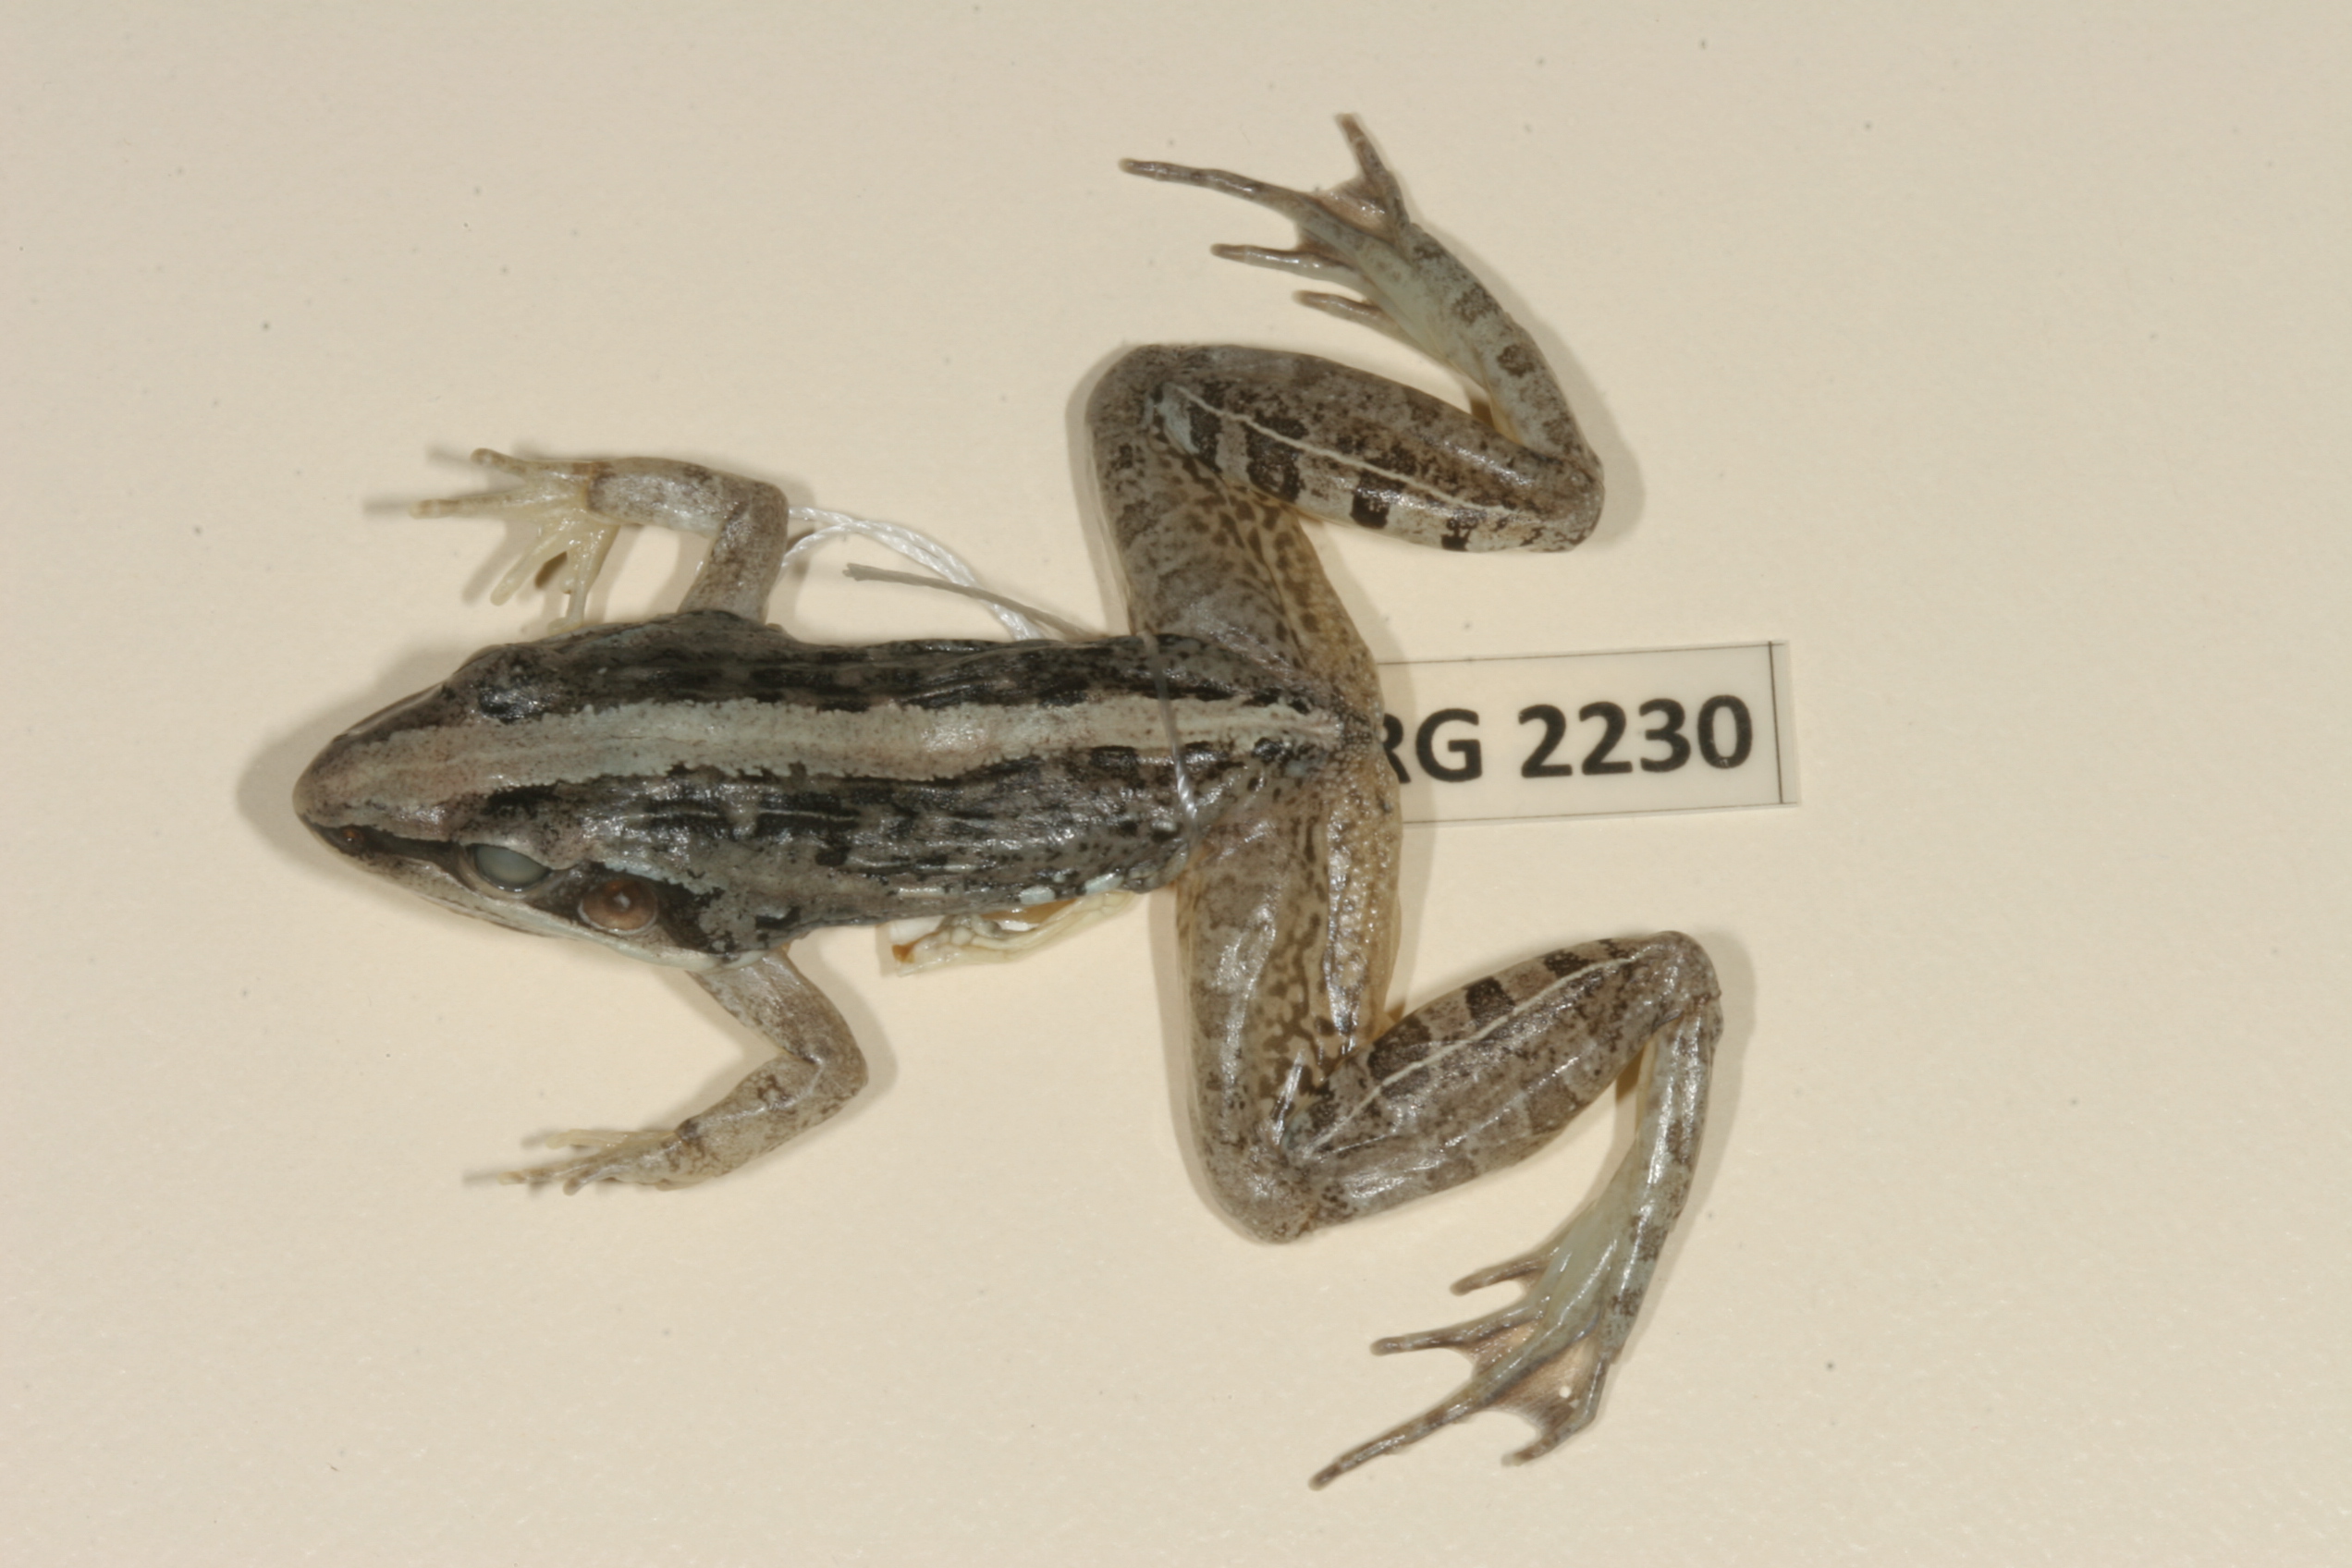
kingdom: Animalia
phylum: Chordata
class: Amphibia
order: Anura
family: Ptychadenidae
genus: Ptychadena
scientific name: Ptychadena mossambica
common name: Mozambique ridged frog
